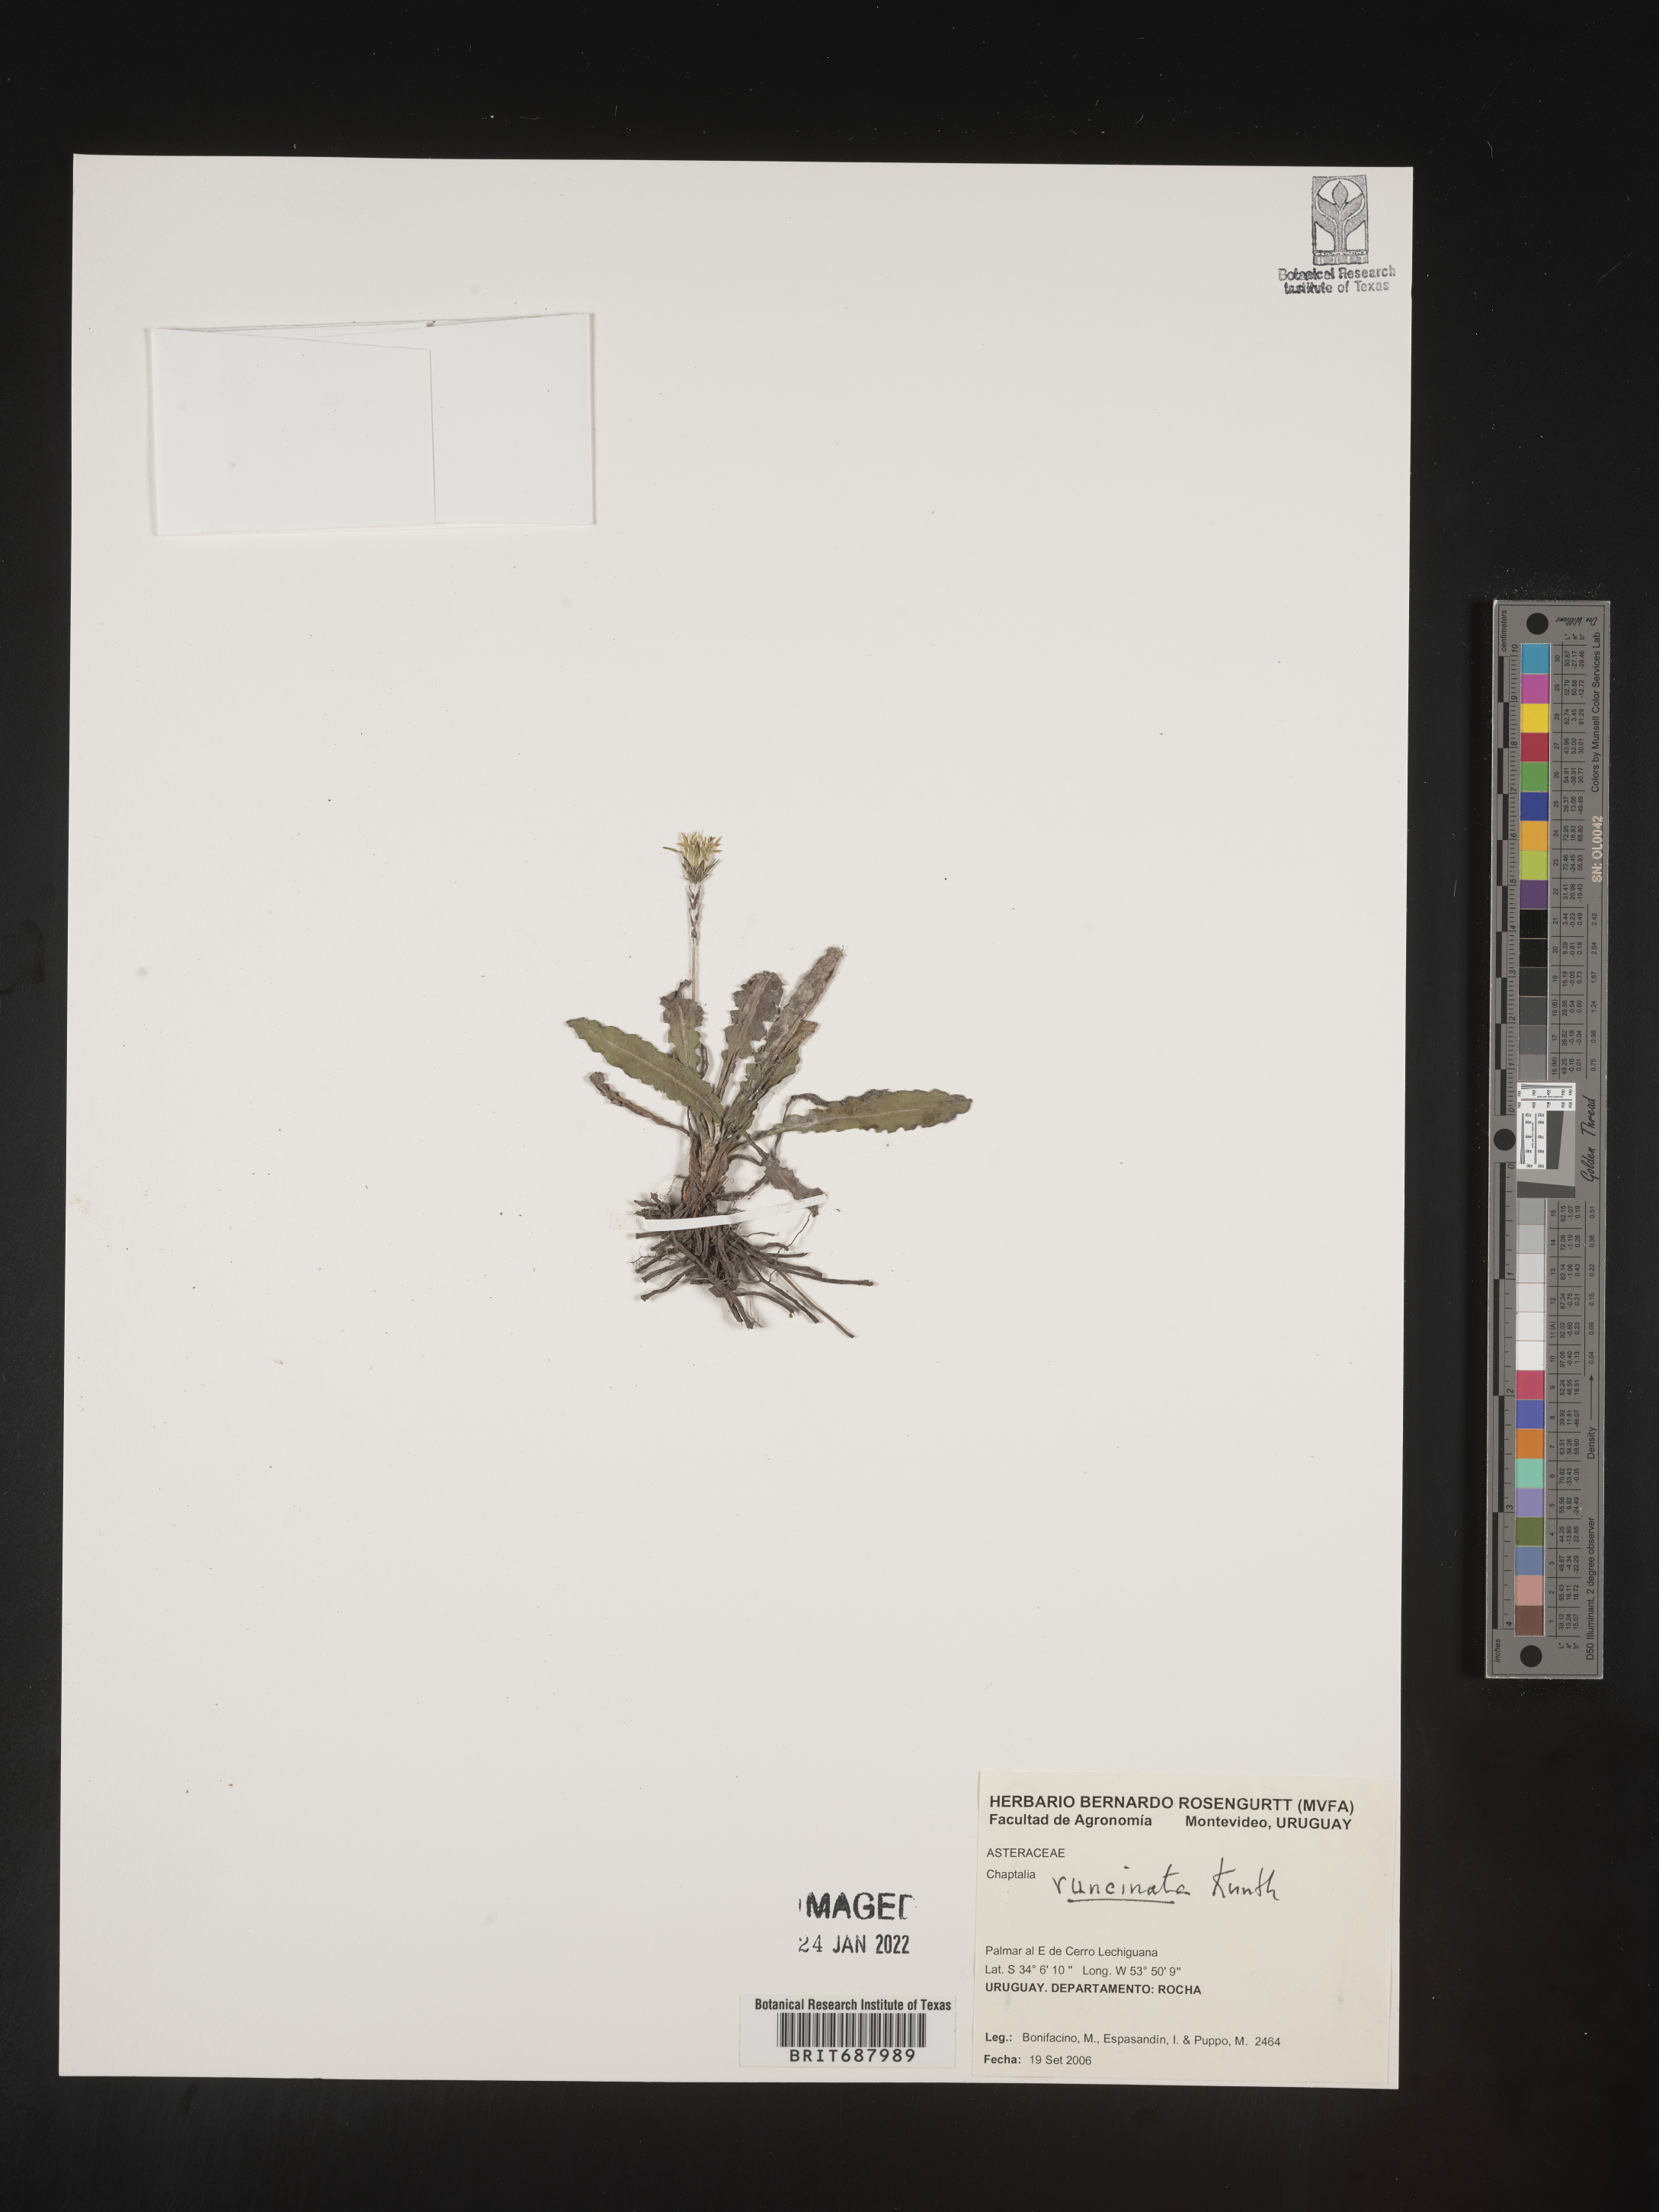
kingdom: Plantae
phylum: Tracheophyta
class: Magnoliopsida
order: Asterales
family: Asteraceae
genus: Chaptalia
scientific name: Chaptalia
